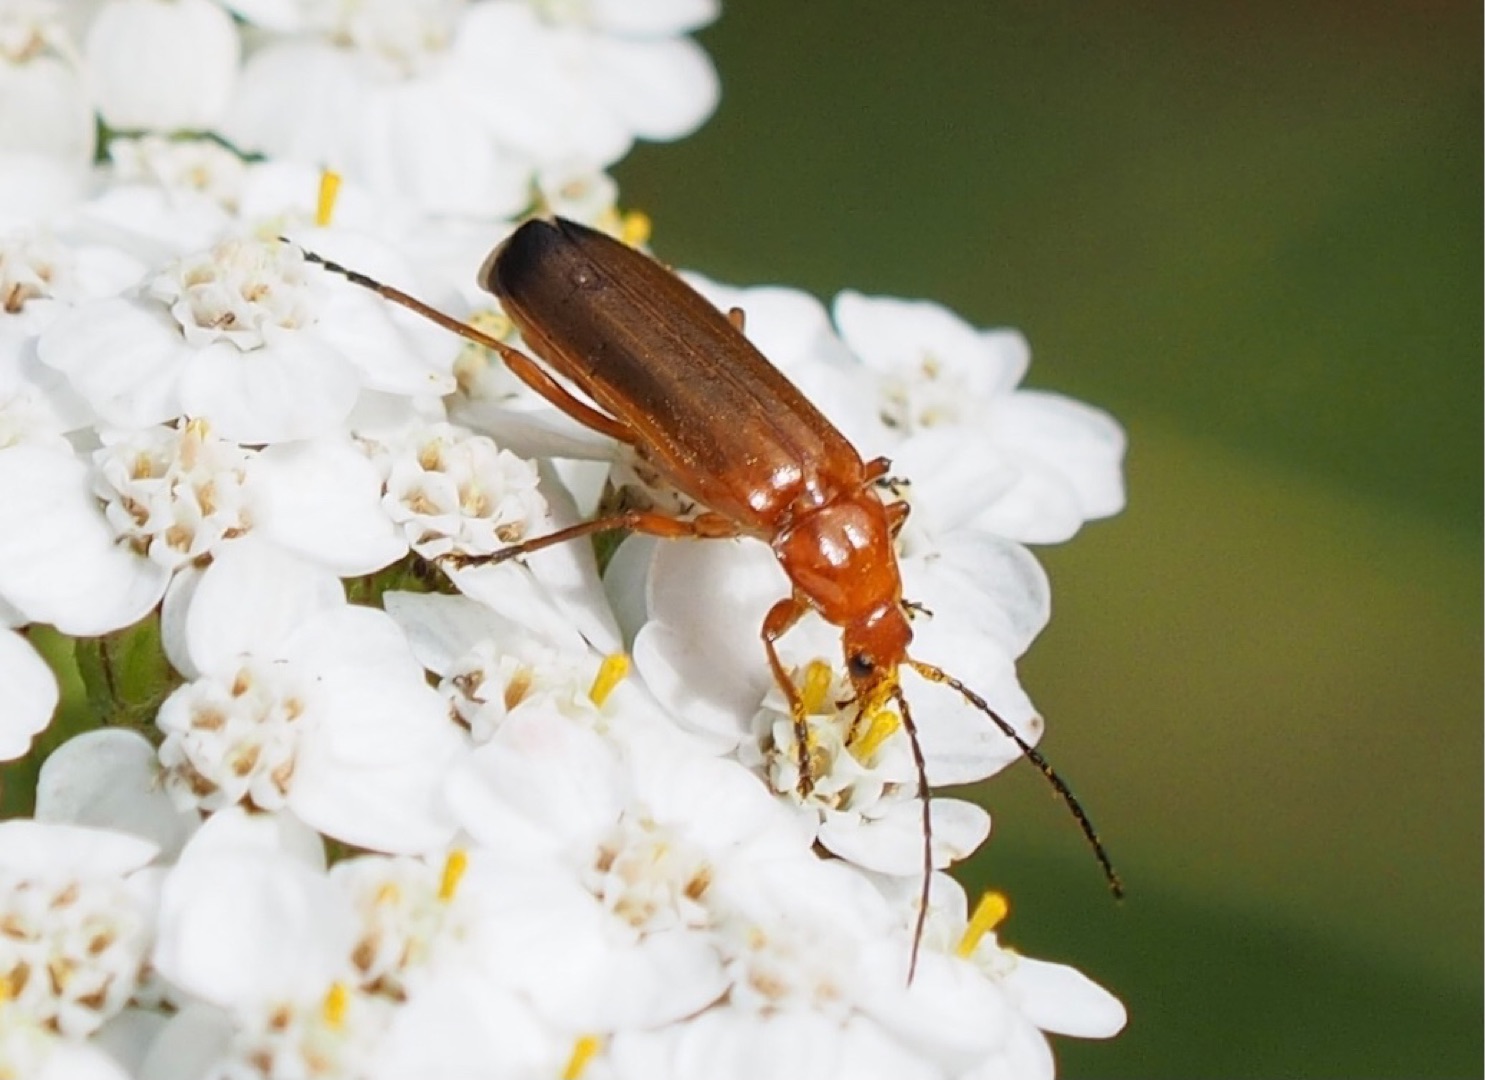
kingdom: Animalia
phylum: Arthropoda
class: Insecta
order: Coleoptera
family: Cantharidae
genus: Rhagonycha
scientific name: Rhagonycha fulva
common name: Præstebille
